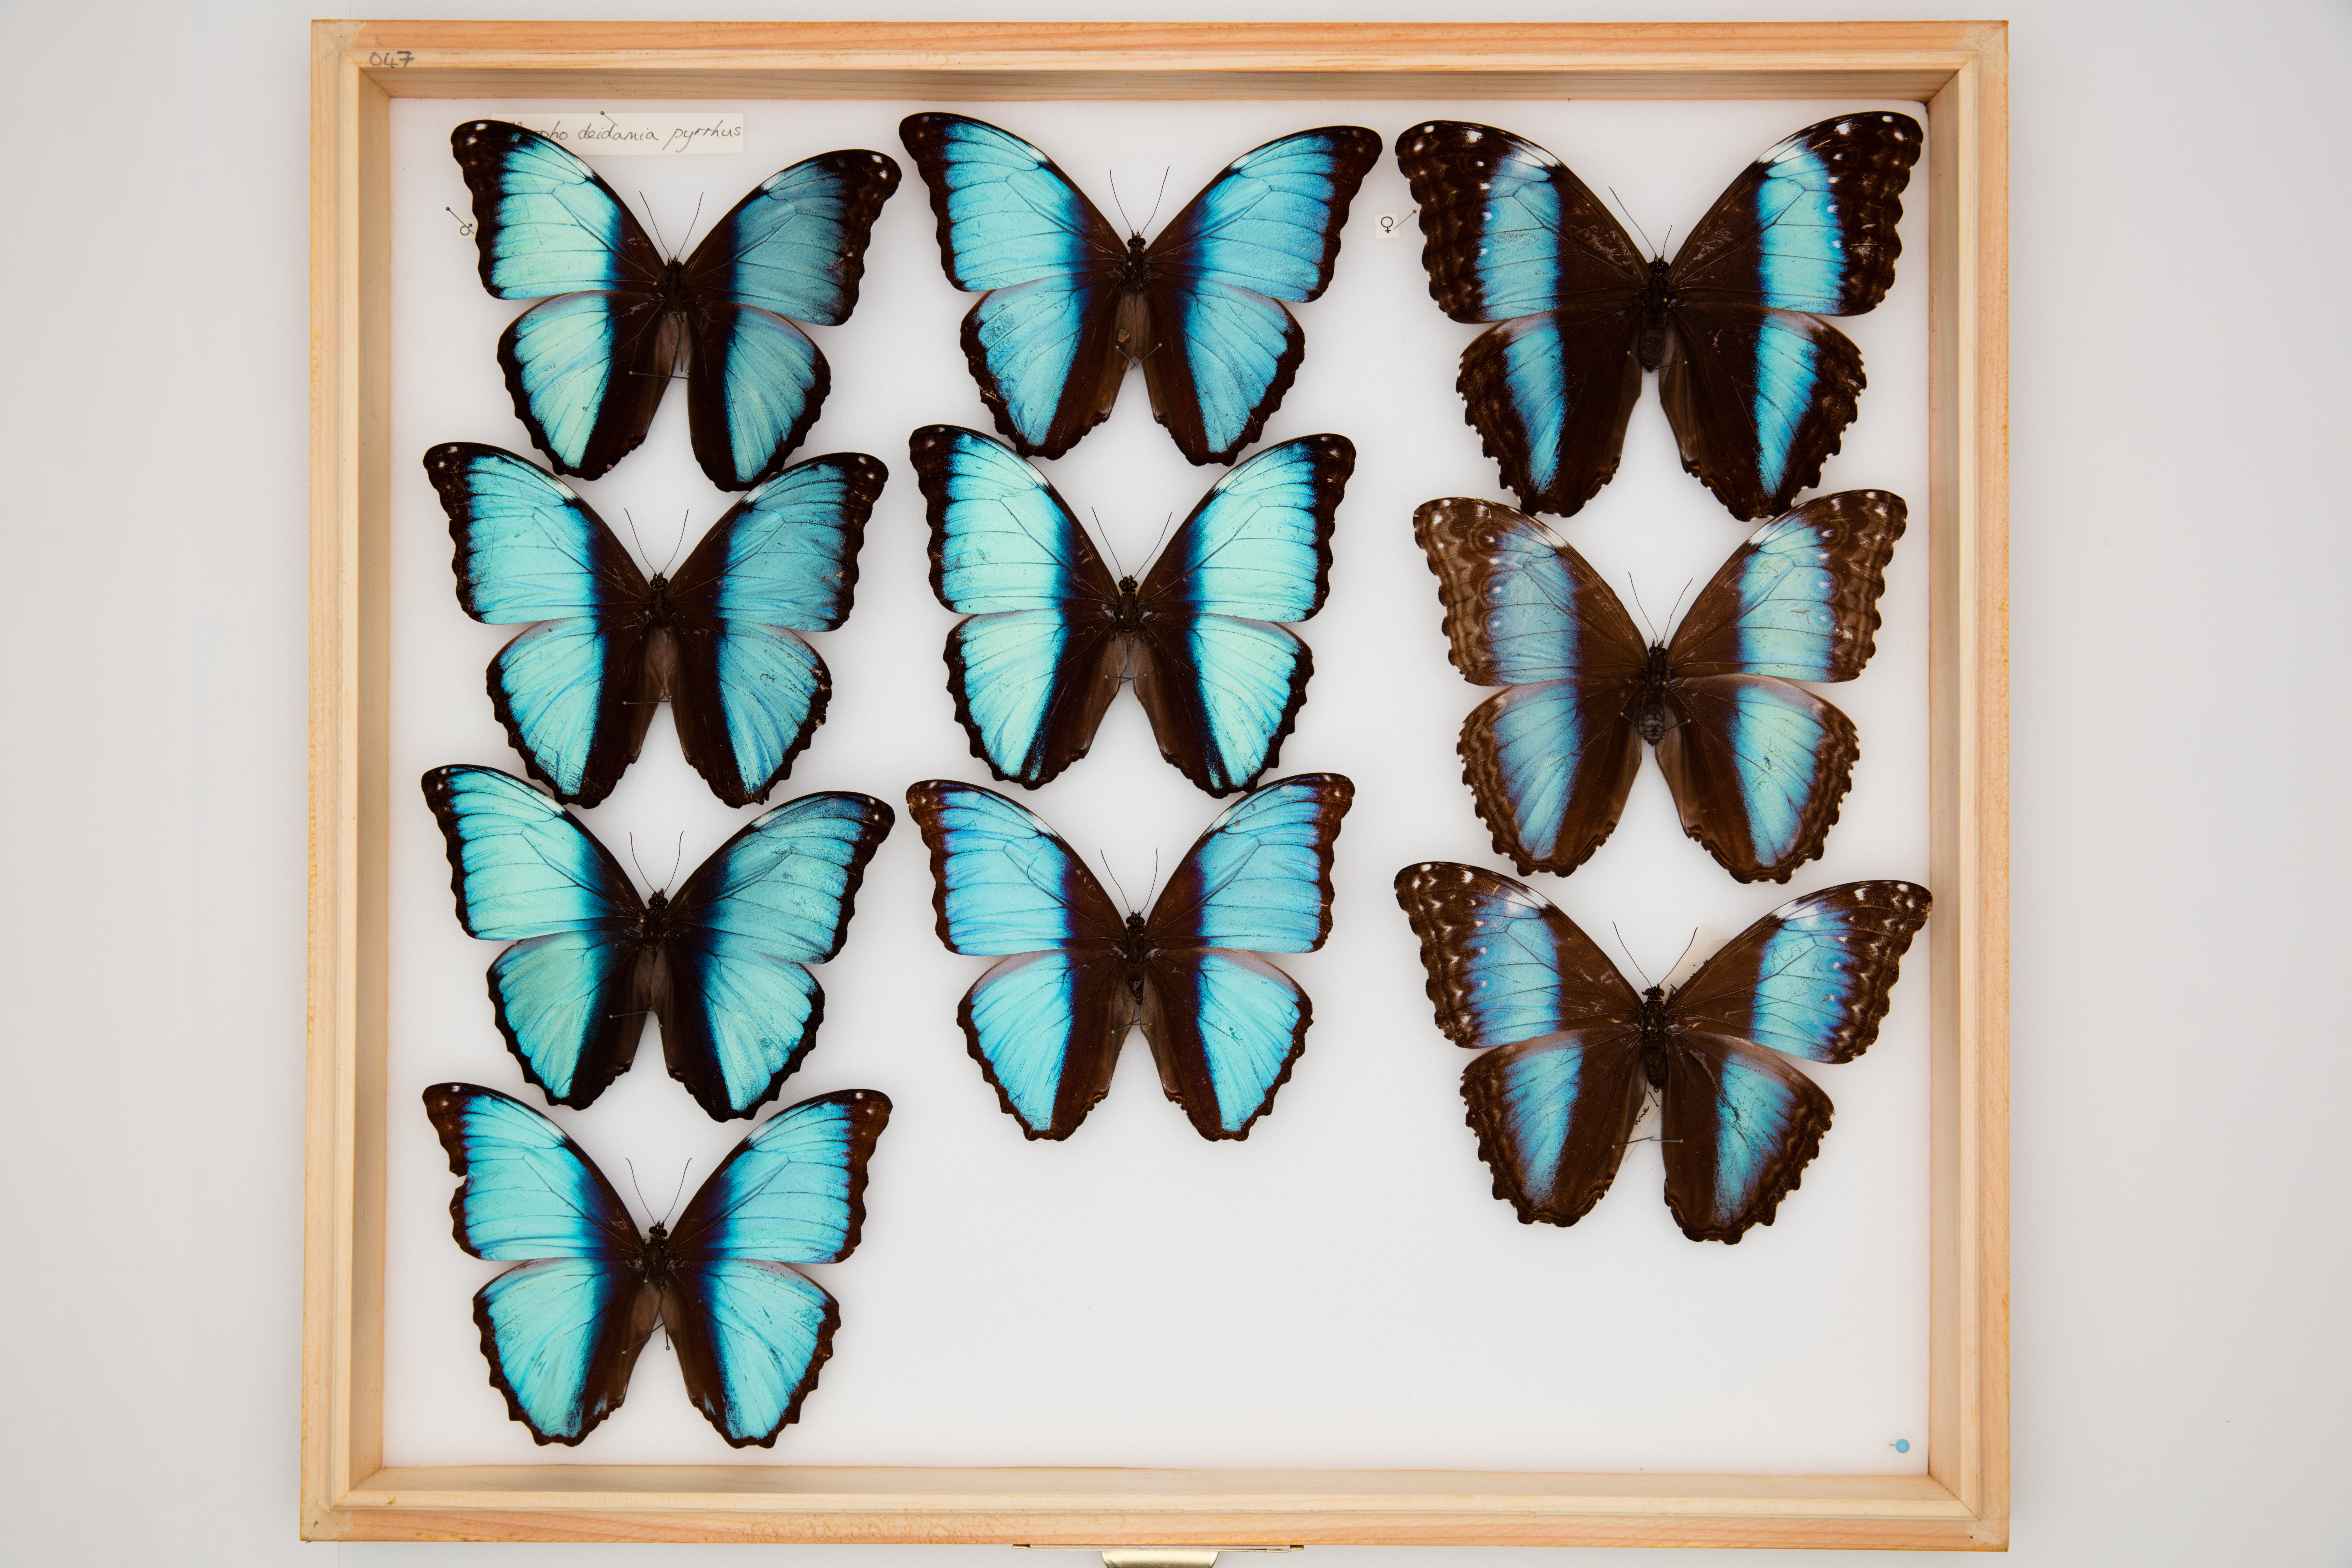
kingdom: Animalia
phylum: Arthropoda
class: Insecta
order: Lepidoptera
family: Nymphalidae
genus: Morpho
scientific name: Morpho deidamia
